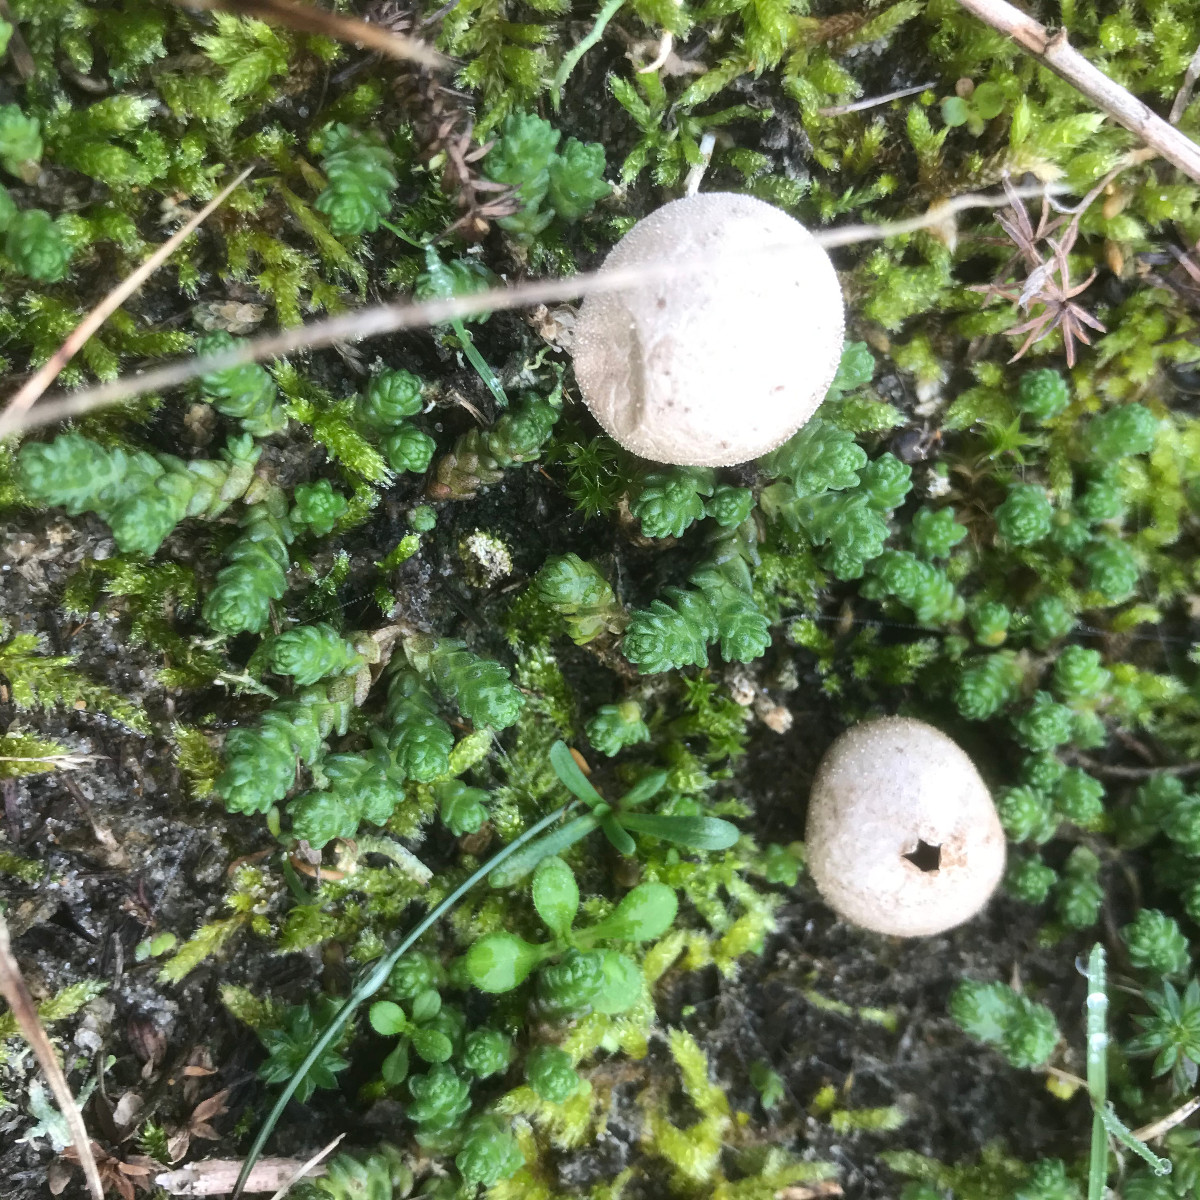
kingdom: Fungi
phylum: Basidiomycota
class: Agaricomycetes
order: Agaricales
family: Agaricaceae
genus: Lycoperdon
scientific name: Lycoperdon
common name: støvbold
